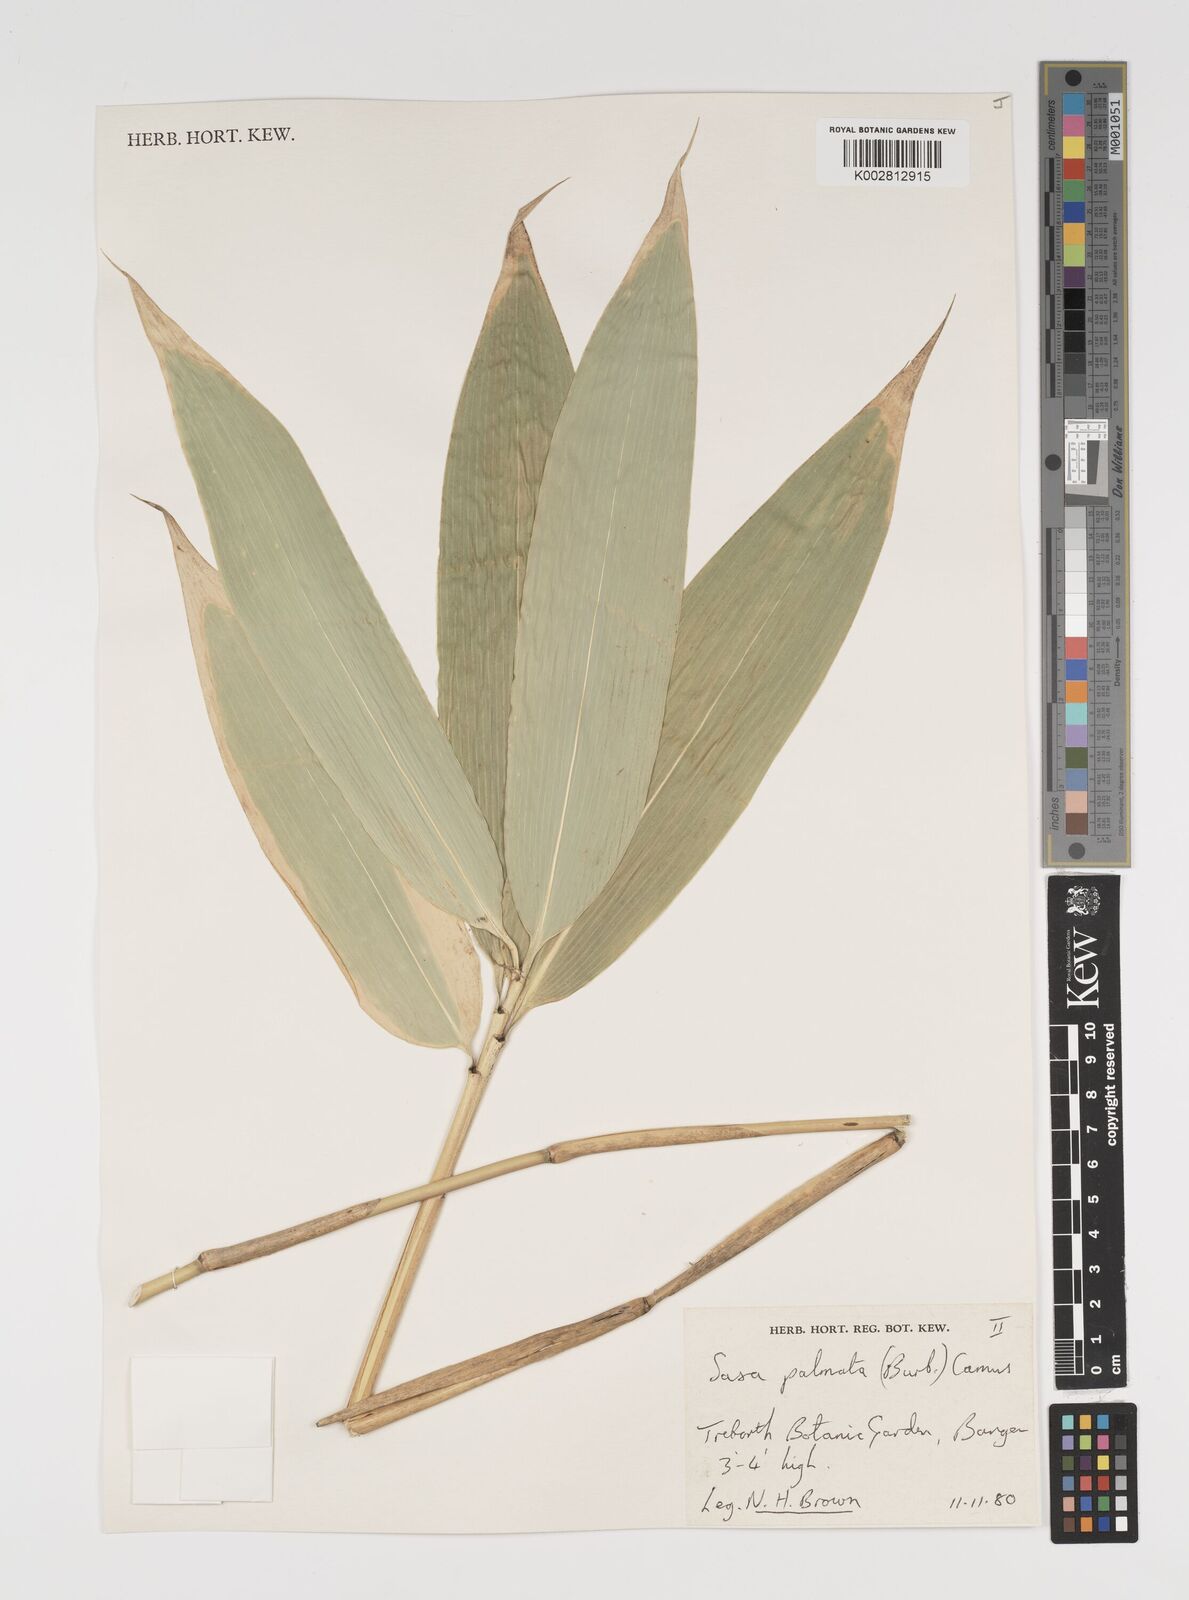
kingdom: Plantae
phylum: Tracheophyta
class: Liliopsida
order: Poales
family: Poaceae
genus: Sasa
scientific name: Sasa palmata
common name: Broad-leaved bamboo
